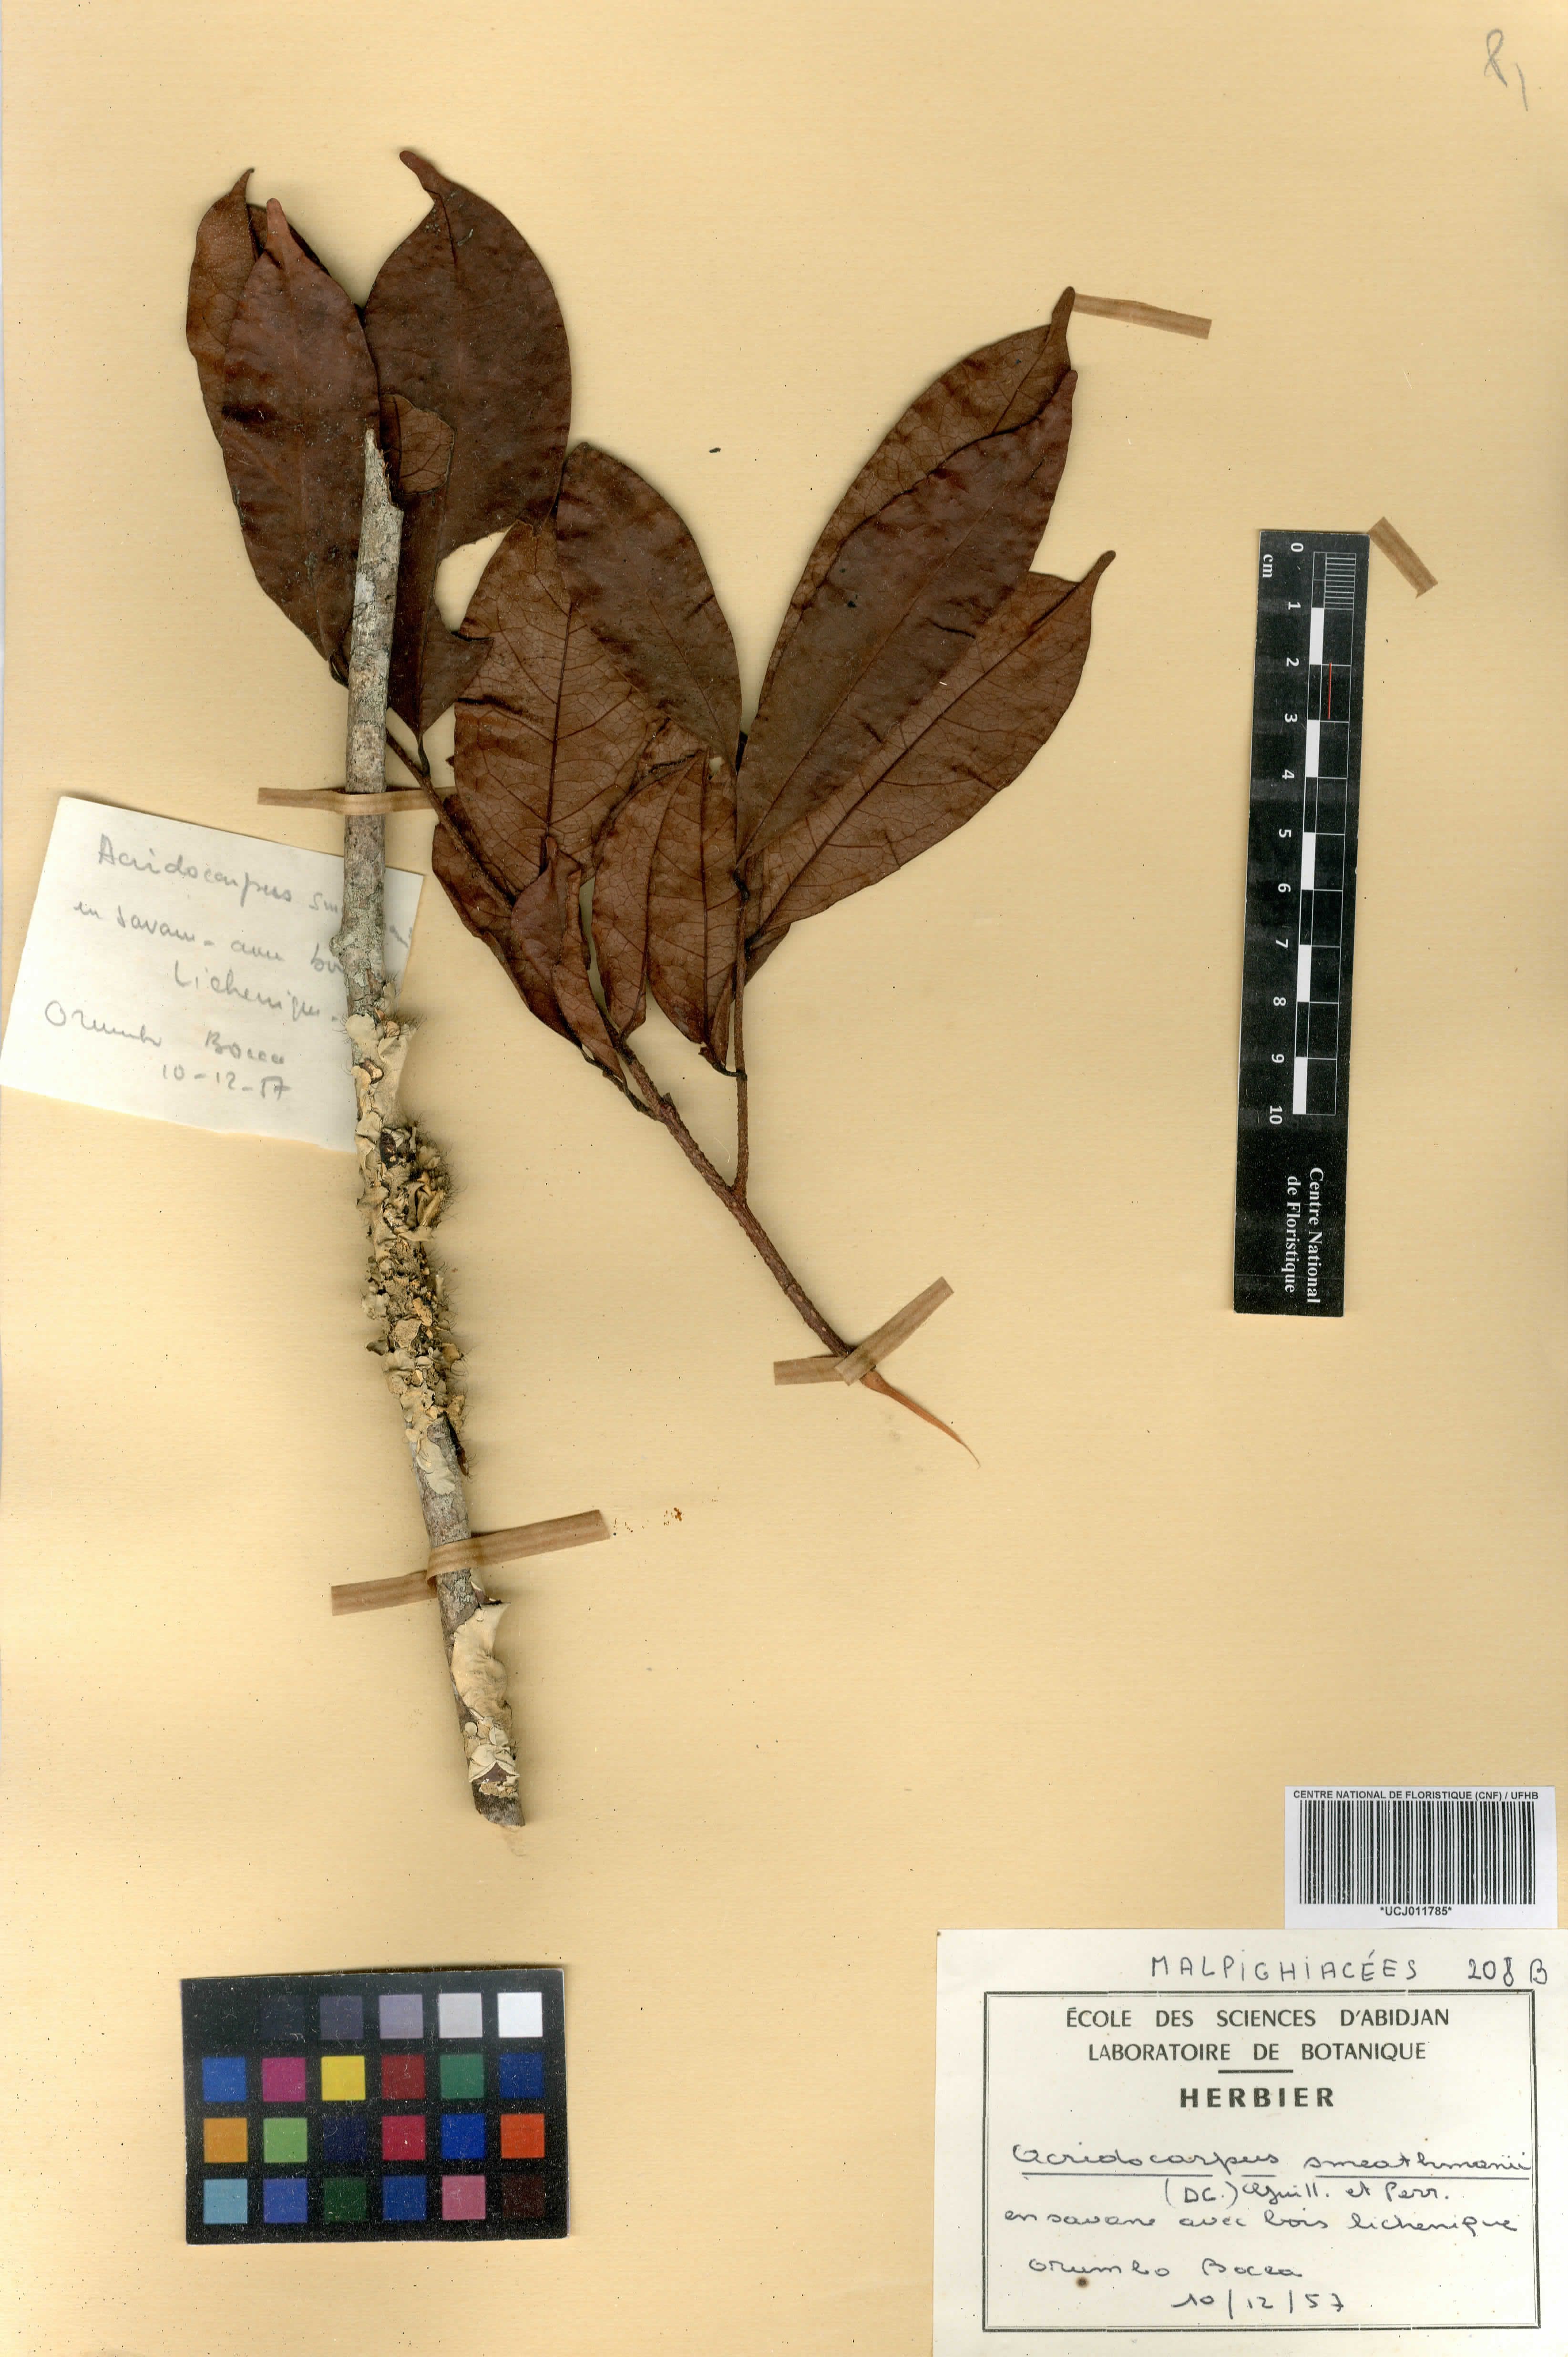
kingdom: Plantae
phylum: Tracheophyta
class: Magnoliopsida
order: Malpighiales
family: Malpighiaceae
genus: Acridocarpus
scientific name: Acridocarpus smeathmannii
